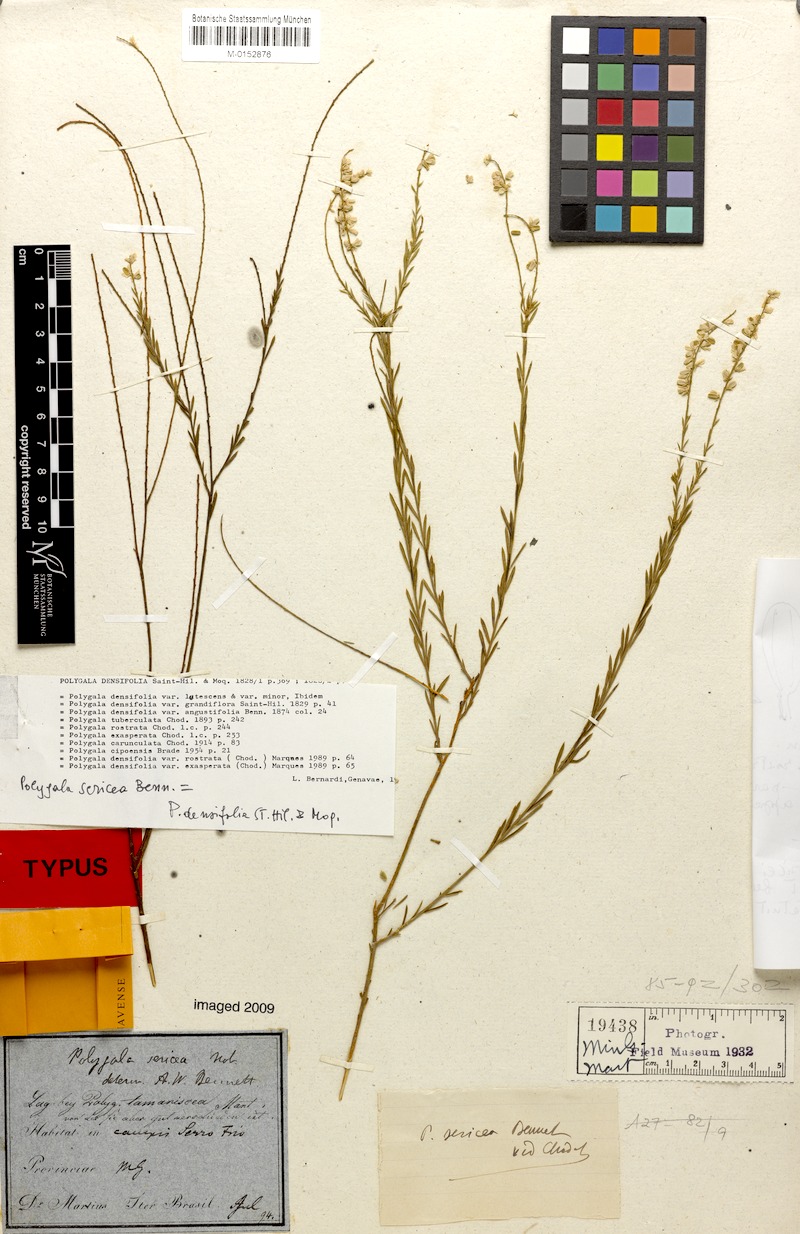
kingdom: Plantae
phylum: Tracheophyta
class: Magnoliopsida
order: Fabales
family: Polygalaceae
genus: Polygala
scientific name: Polygala densifolia
